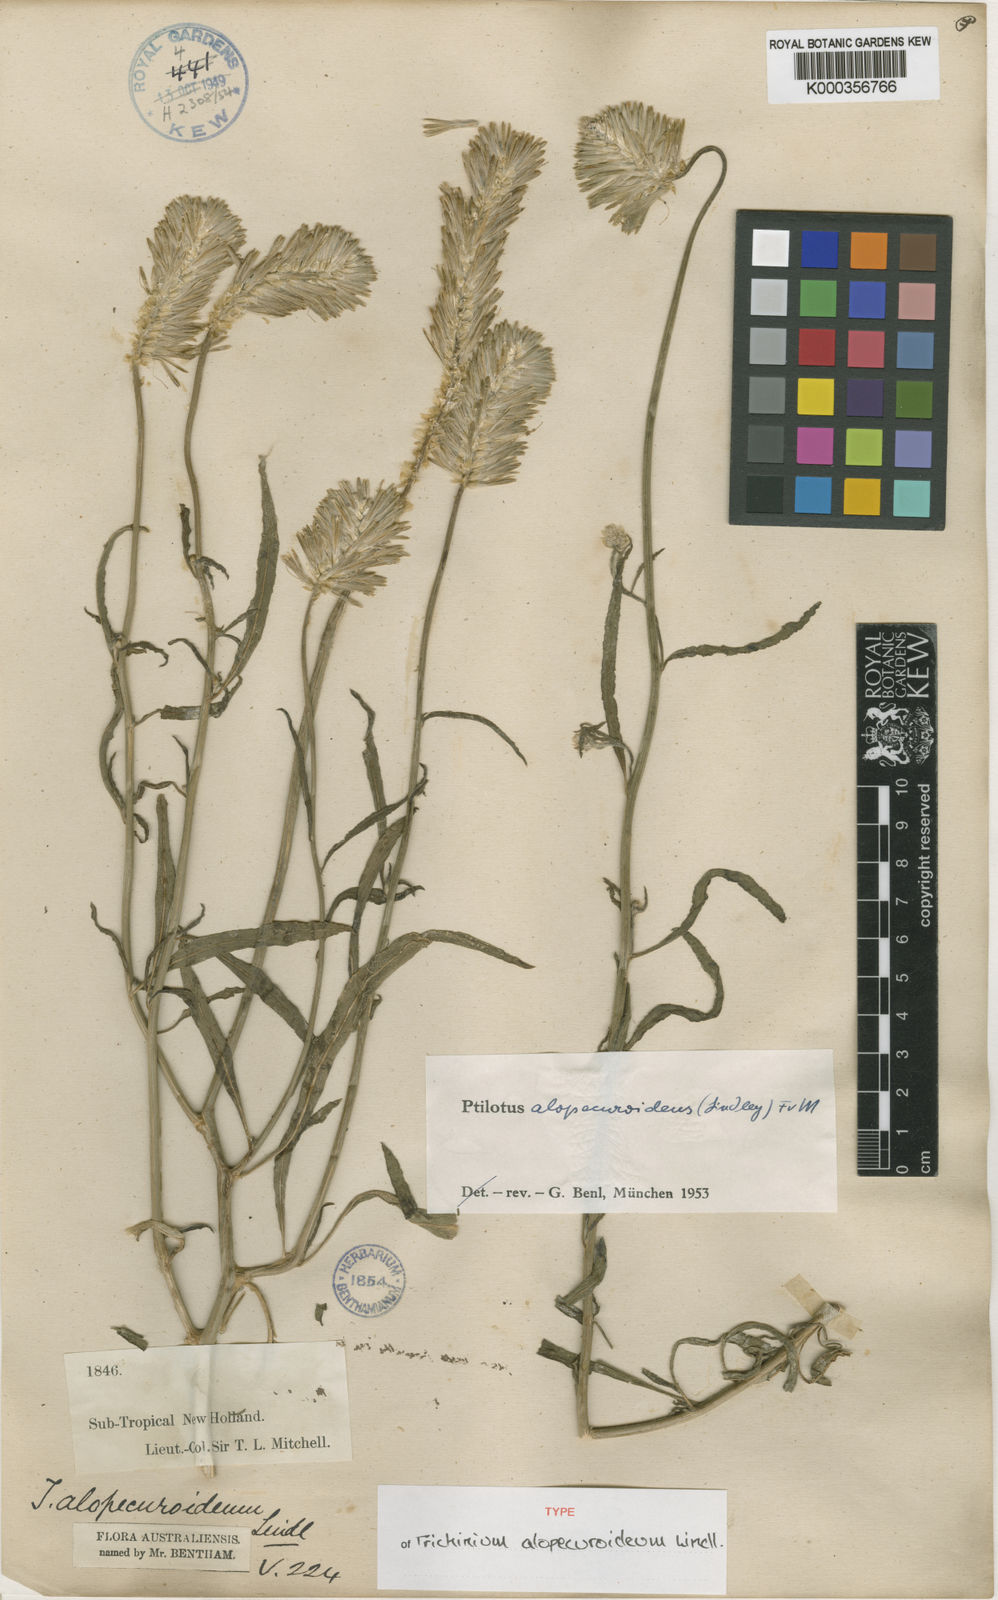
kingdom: Plantae
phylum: Tracheophyta
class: Magnoliopsida
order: Caryophyllales
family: Amaranthaceae
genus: Ptilotus
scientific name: Ptilotus polystachyus
